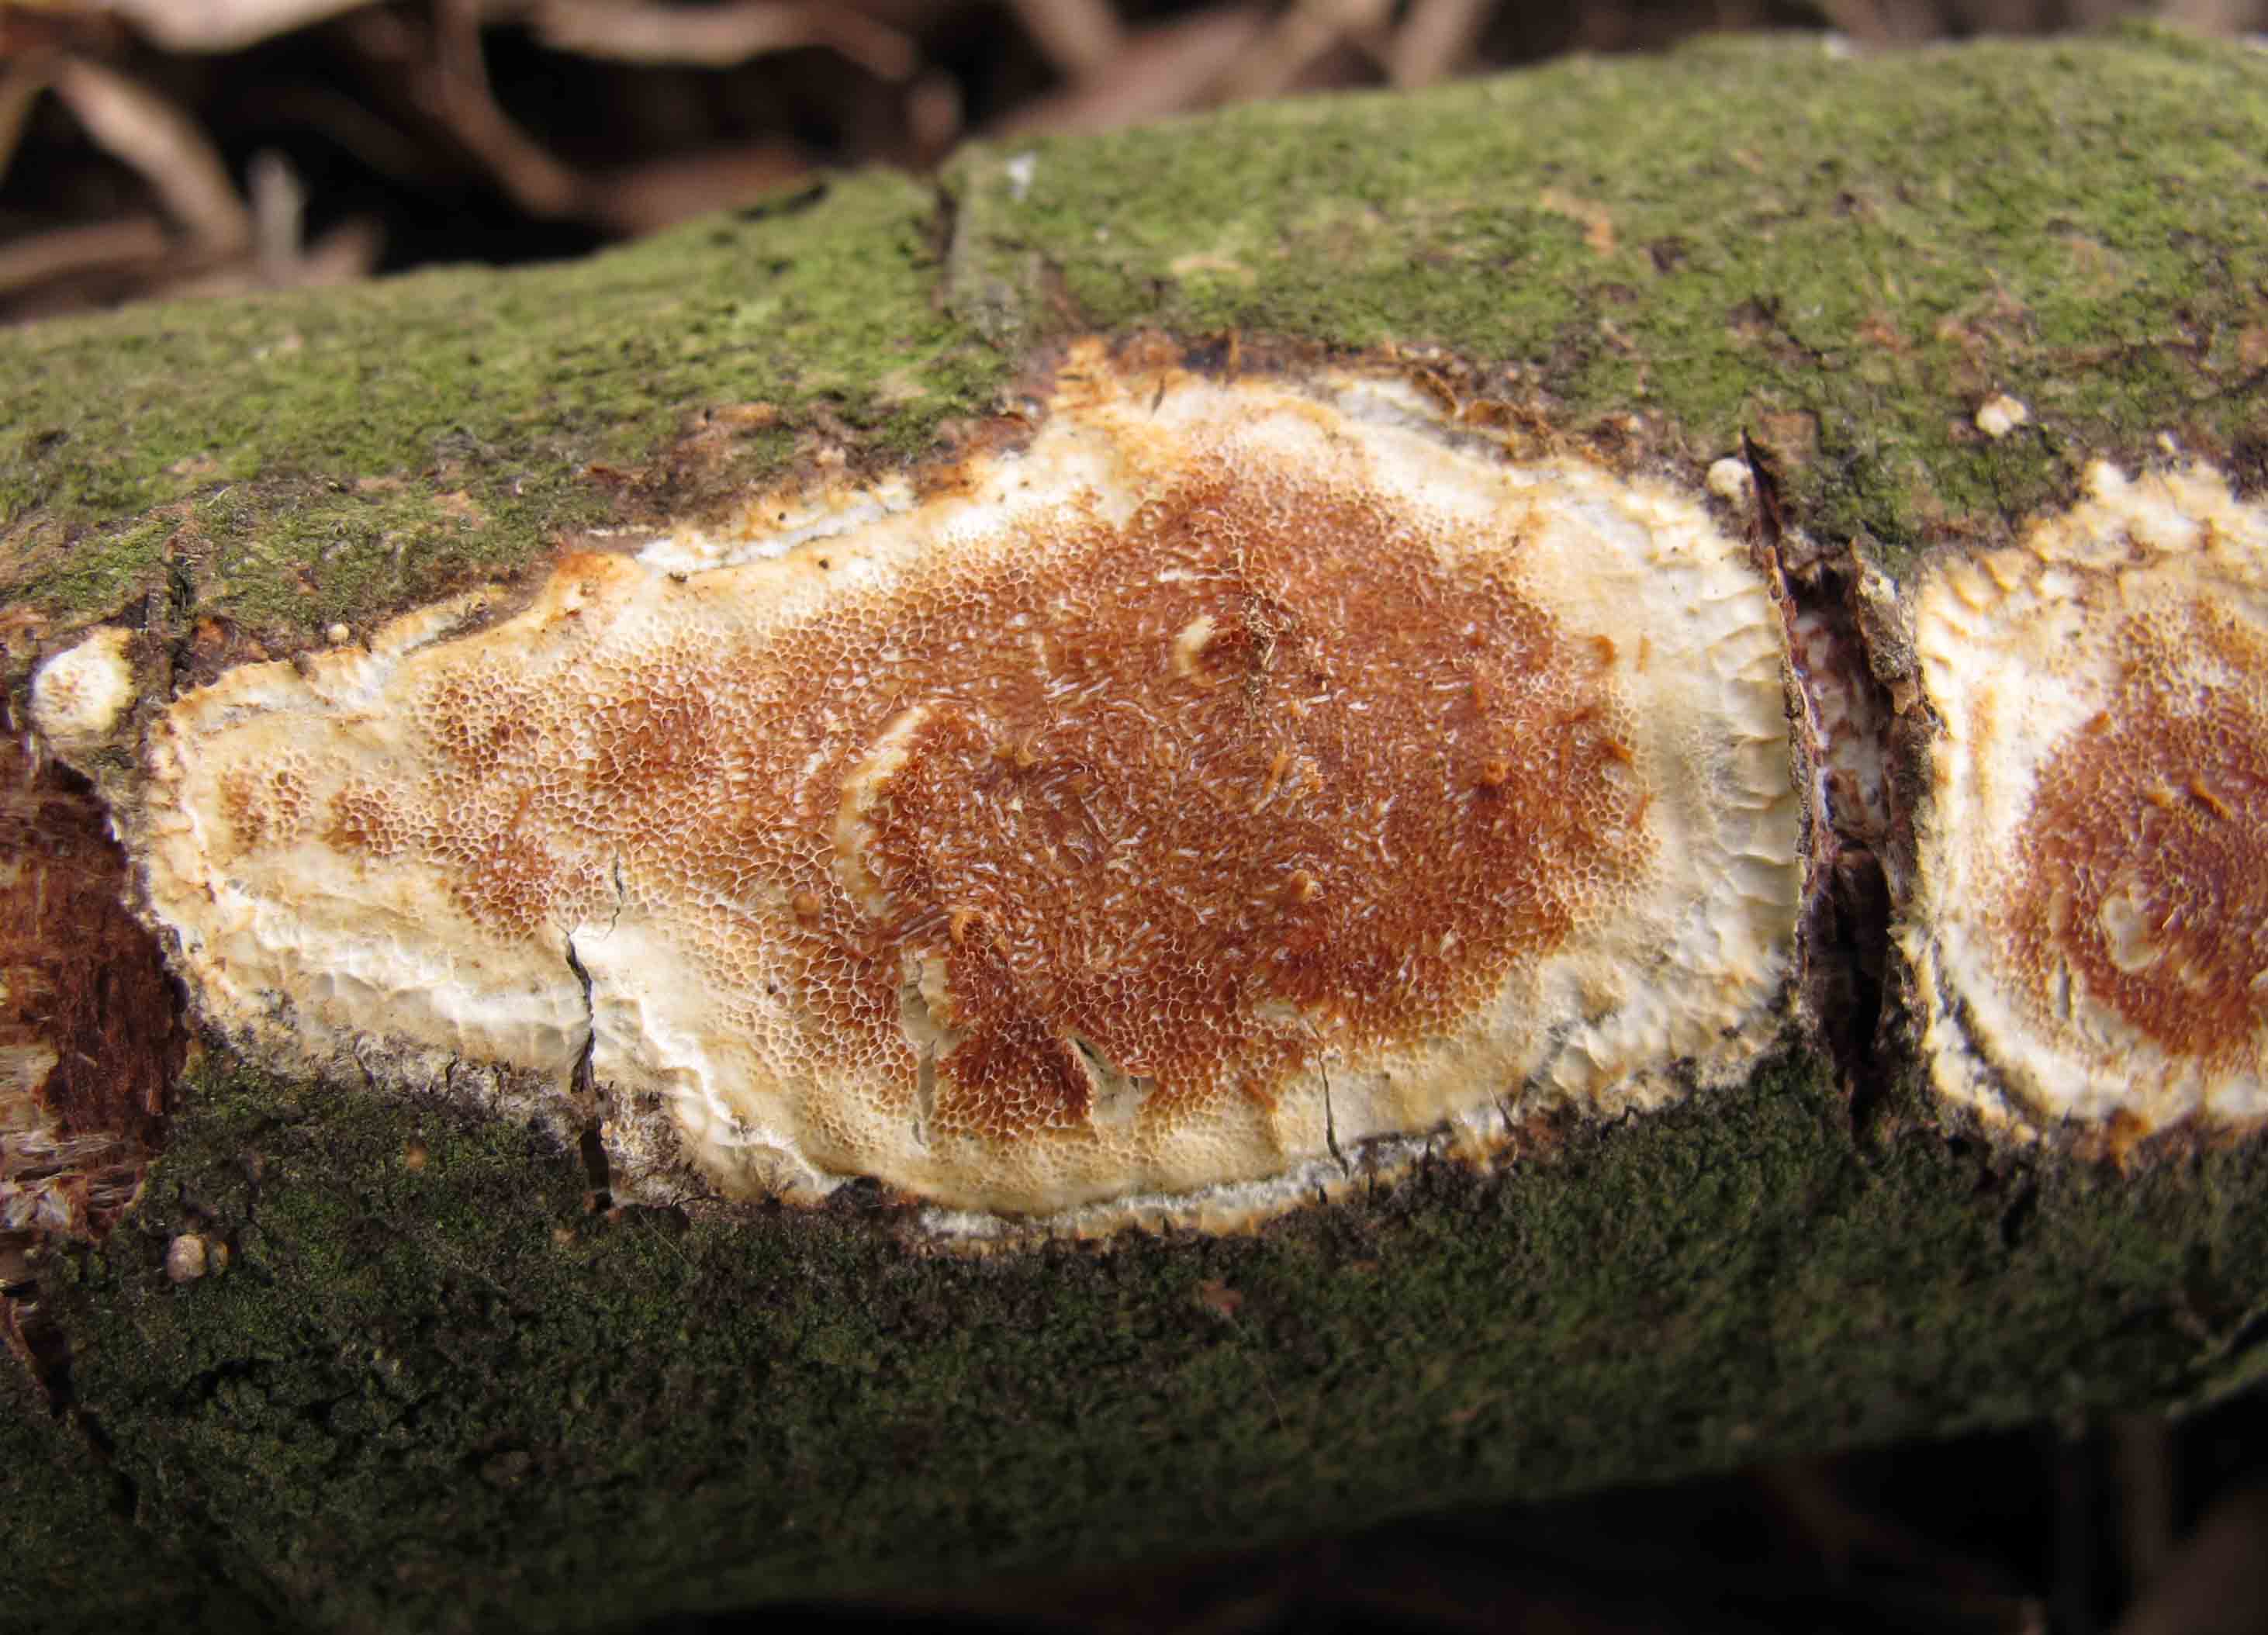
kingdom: Fungi
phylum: Basidiomycota
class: Agaricomycetes
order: Polyporales
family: Irpicaceae
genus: Resiniporus
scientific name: Resiniporus resinascens
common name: trist pastelporesvamp
